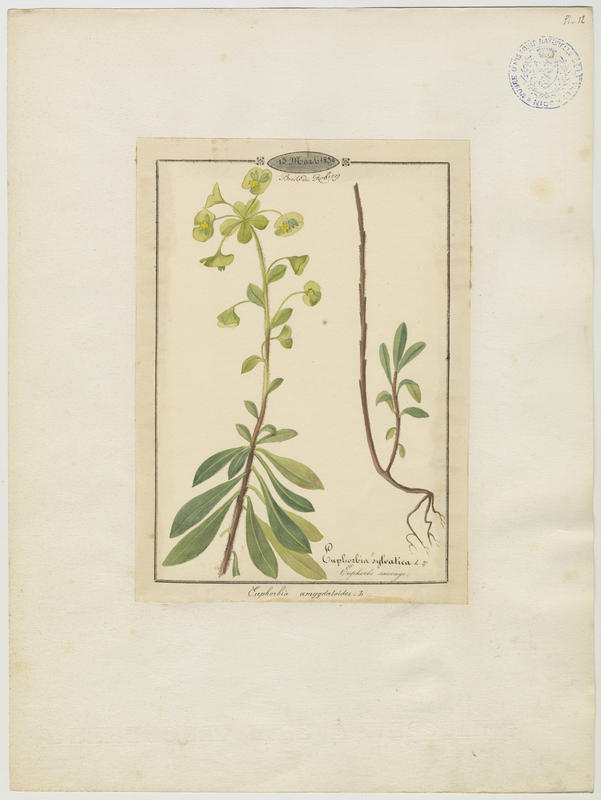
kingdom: Plantae
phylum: Tracheophyta
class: Magnoliopsida
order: Malpighiales
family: Euphorbiaceae
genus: Euphorbia
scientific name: Euphorbia amygdaloides
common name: Wood spurge
